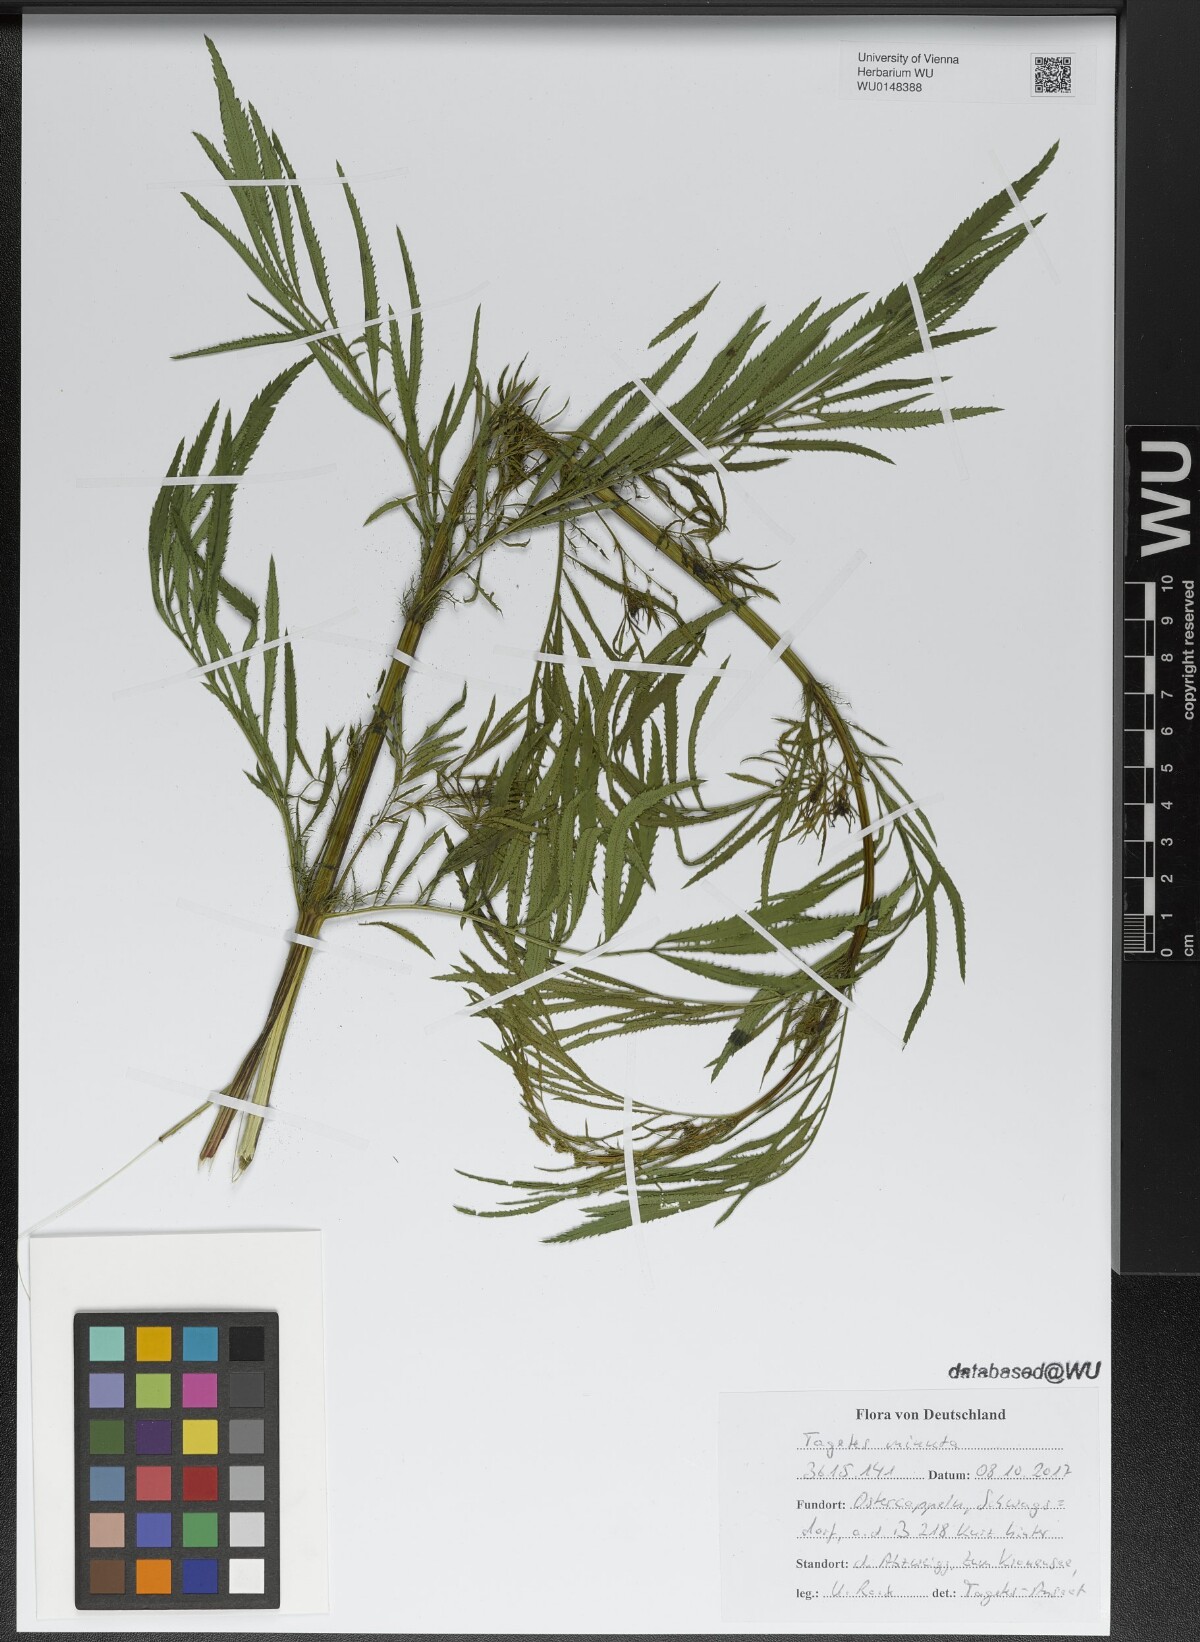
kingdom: Plantae
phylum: Tracheophyta
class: Magnoliopsida
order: Asterales
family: Asteraceae
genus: Tagetes
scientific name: Tagetes minuta
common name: Muster john henry
